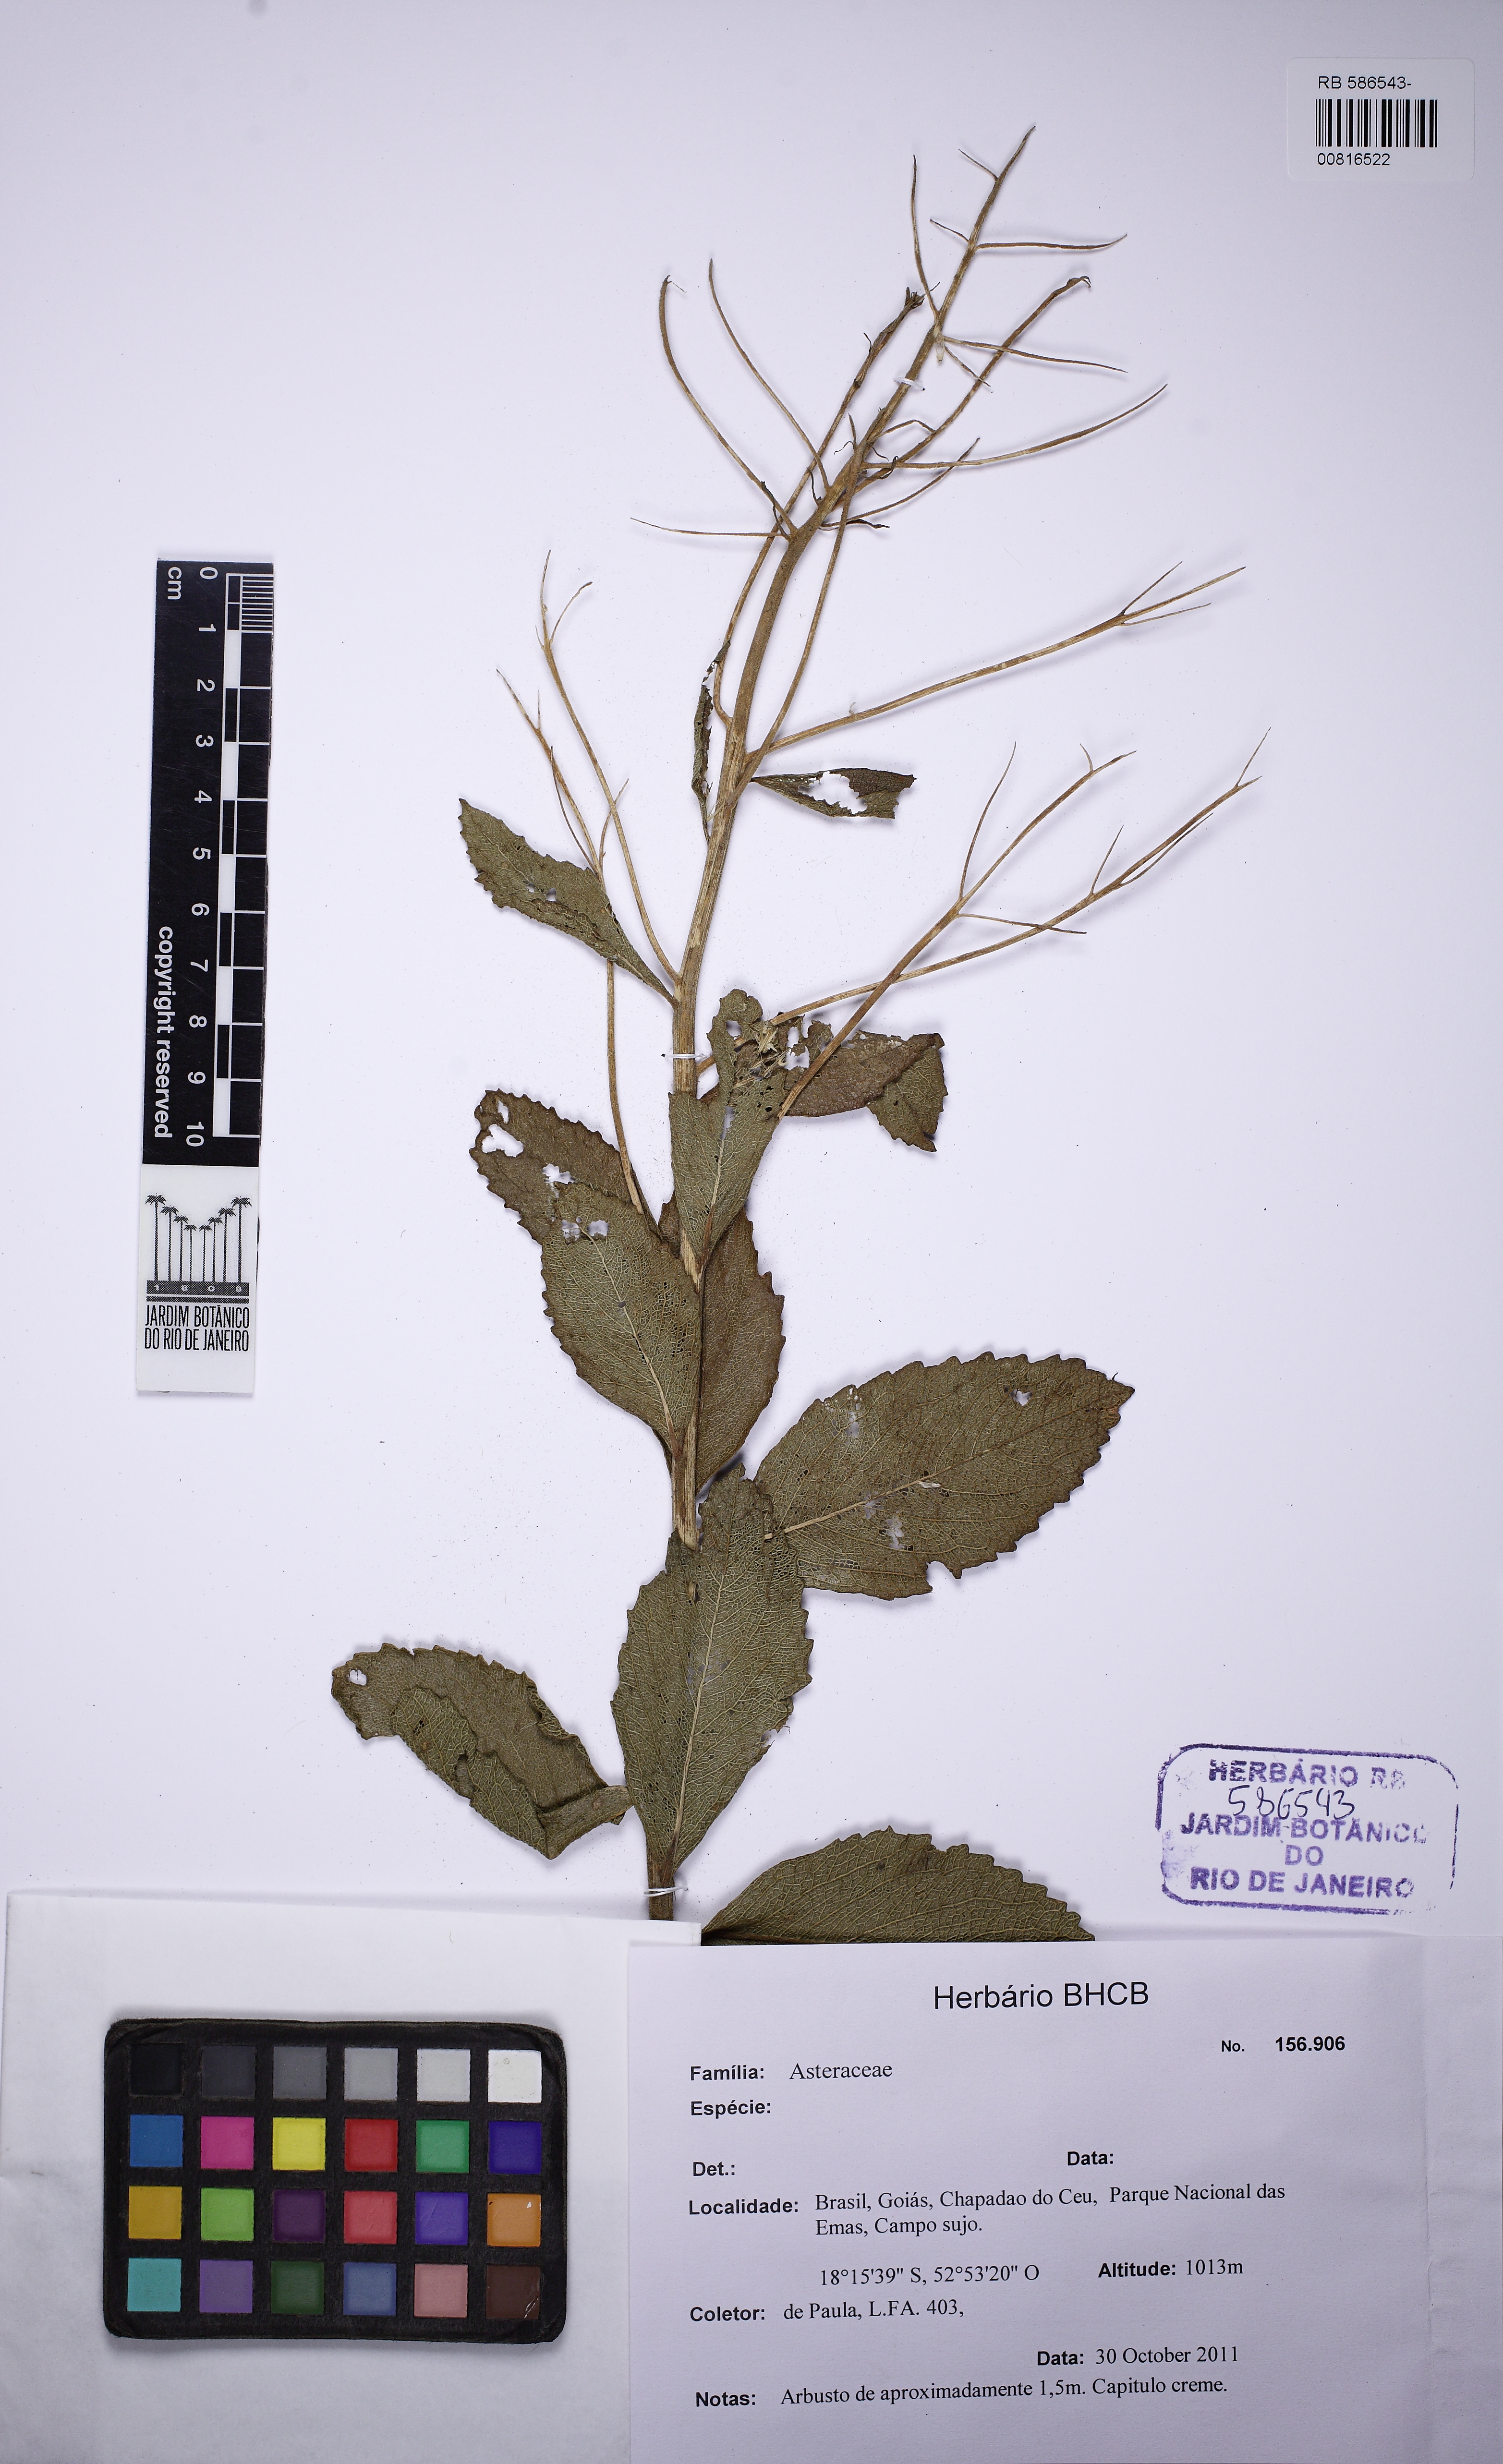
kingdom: Plantae
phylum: Tracheophyta
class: Magnoliopsida
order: Asterales
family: Asteraceae
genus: Stomatanthes
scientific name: Stomatanthes
